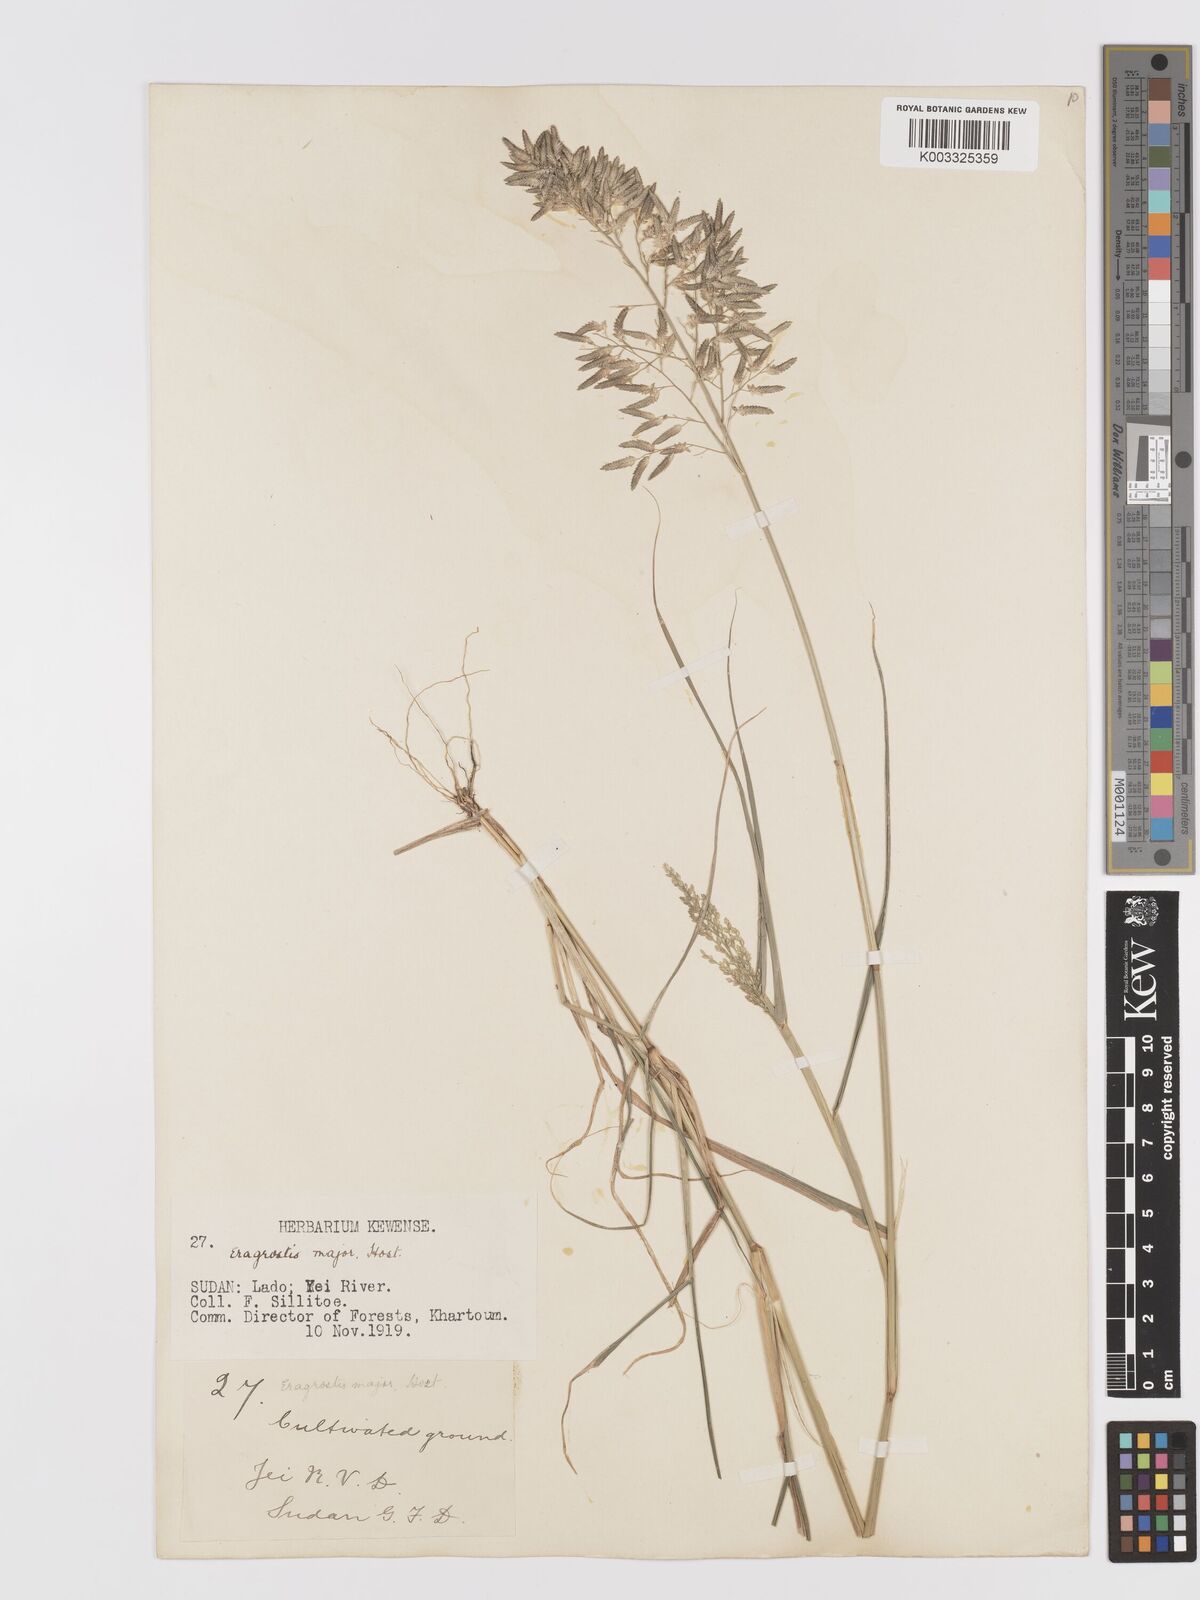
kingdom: Plantae
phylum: Tracheophyta
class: Liliopsida
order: Poales
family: Poaceae
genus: Eragrostis
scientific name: Eragrostis cilianensis
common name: Stinkgrass
